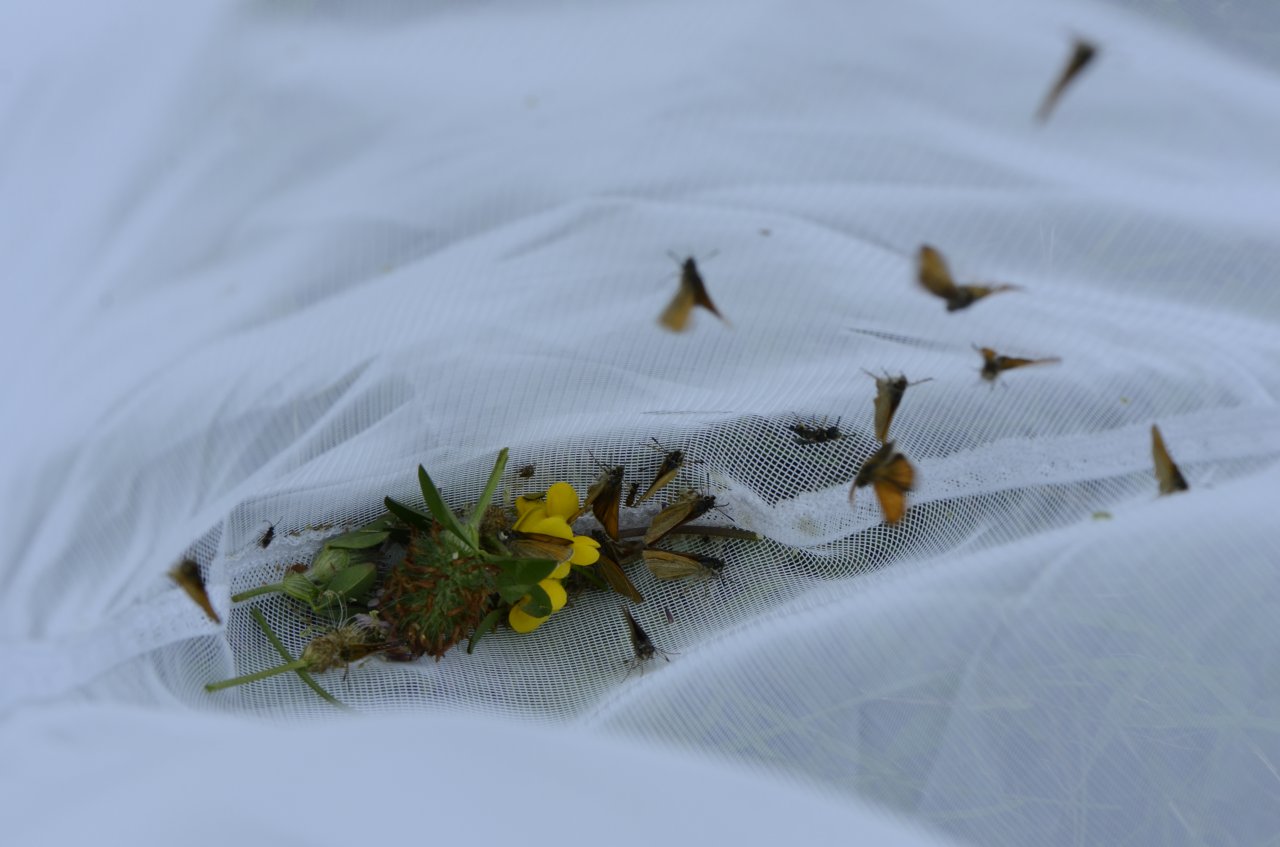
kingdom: Animalia
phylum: Arthropoda
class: Insecta
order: Lepidoptera
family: Hesperiidae
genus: Thymelicus
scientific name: Thymelicus lineola
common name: European Skipper
